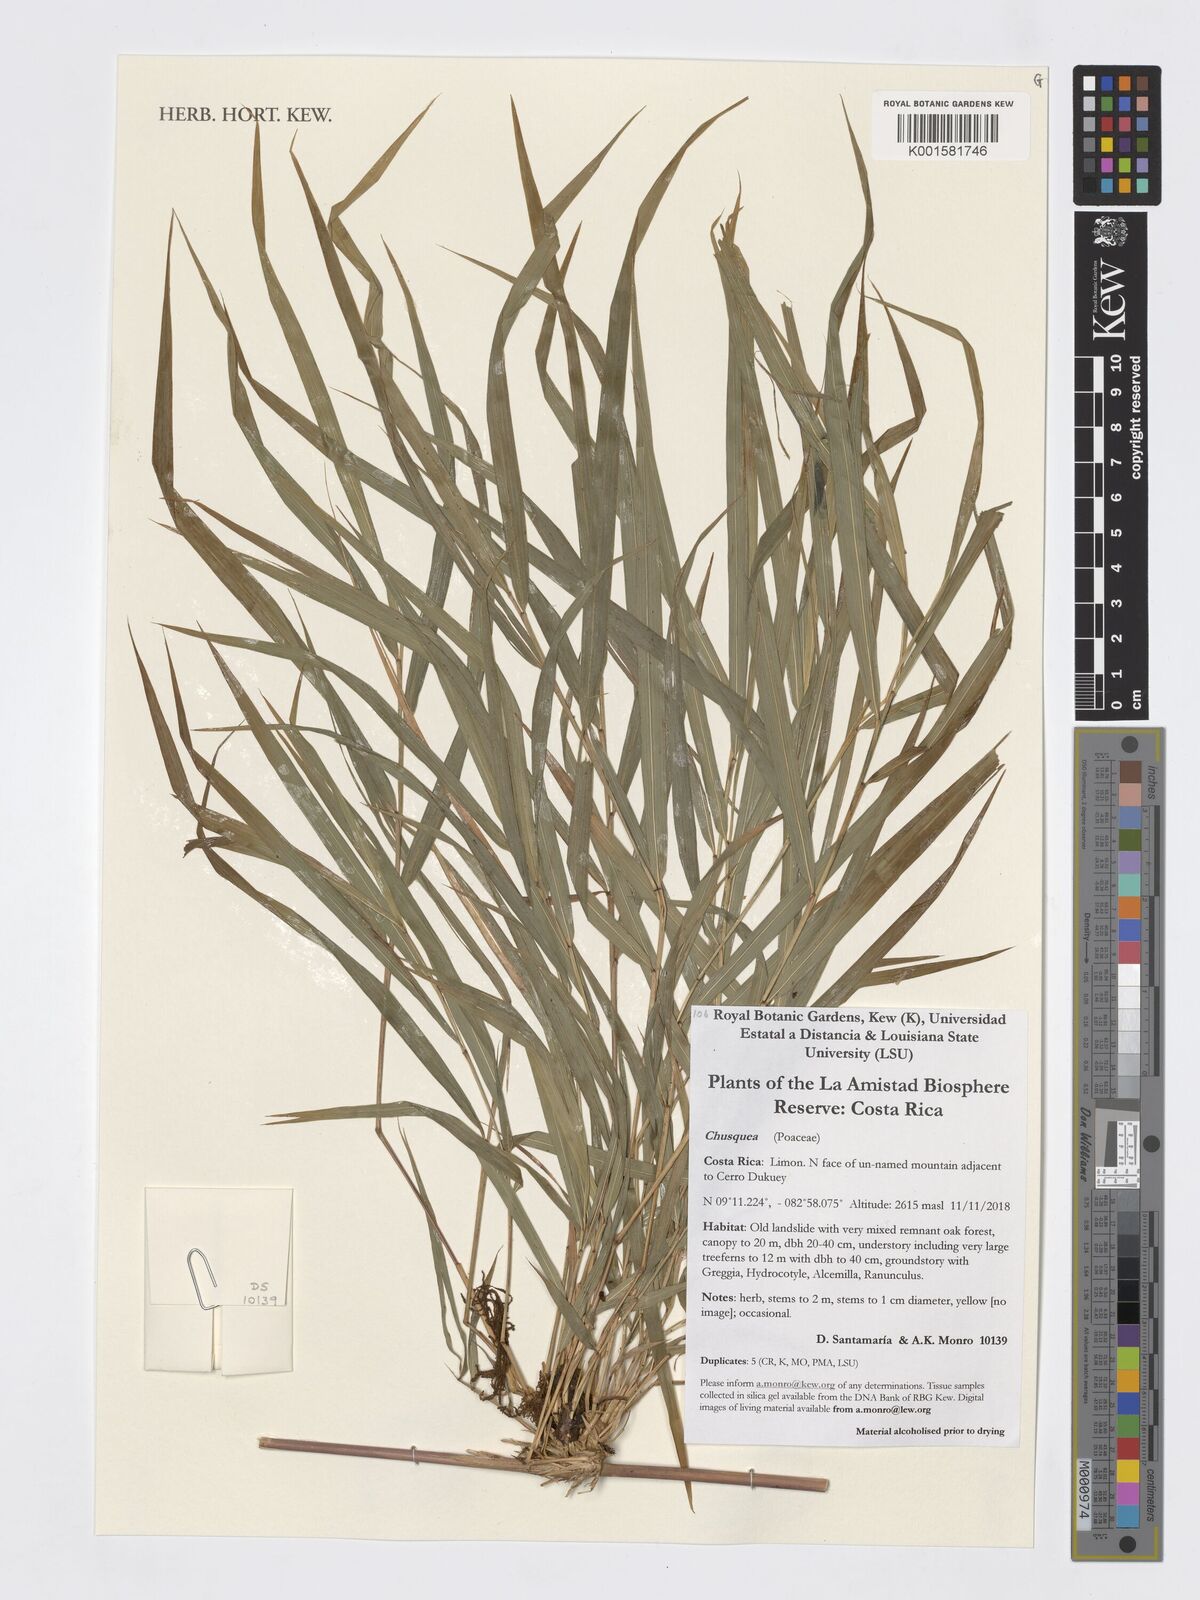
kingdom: Plantae
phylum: Tracheophyta
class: Liliopsida
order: Poales
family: Poaceae
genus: Chusquea
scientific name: Chusquea
